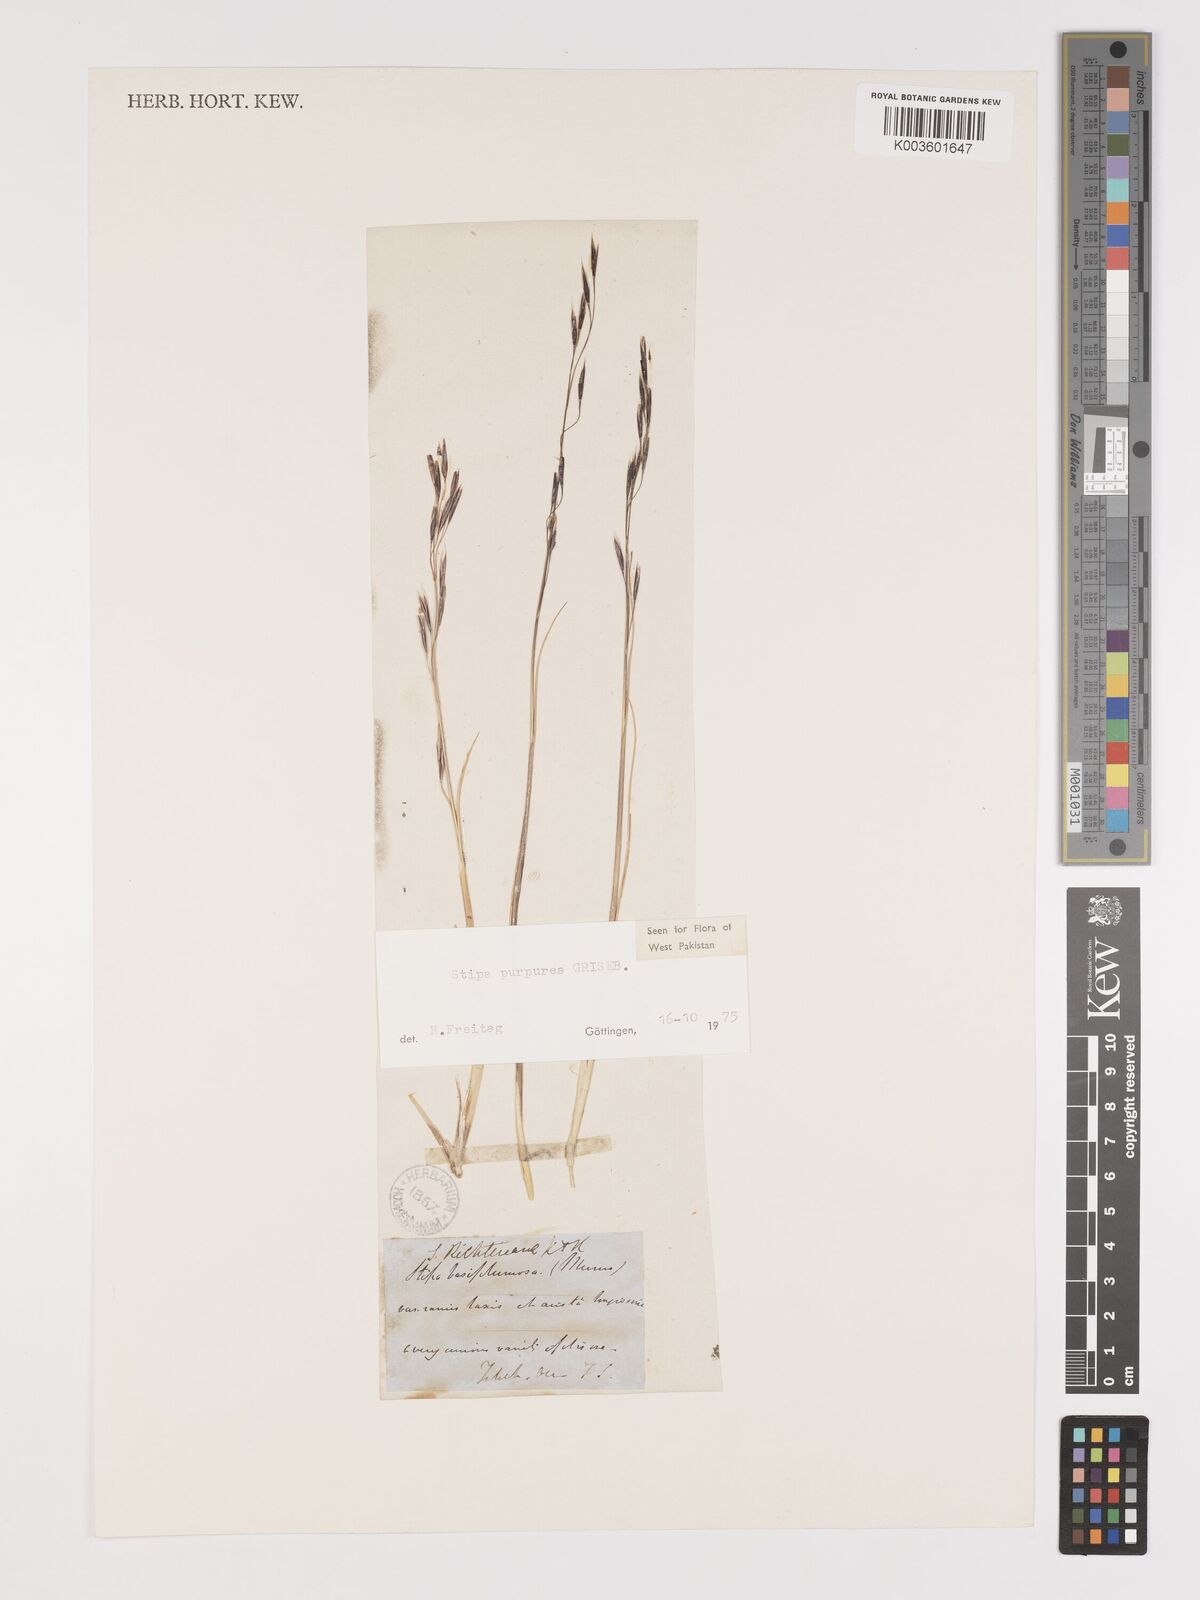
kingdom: Plantae
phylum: Tracheophyta
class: Liliopsida
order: Poales
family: Poaceae
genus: Stipa
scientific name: Stipa purpurea
